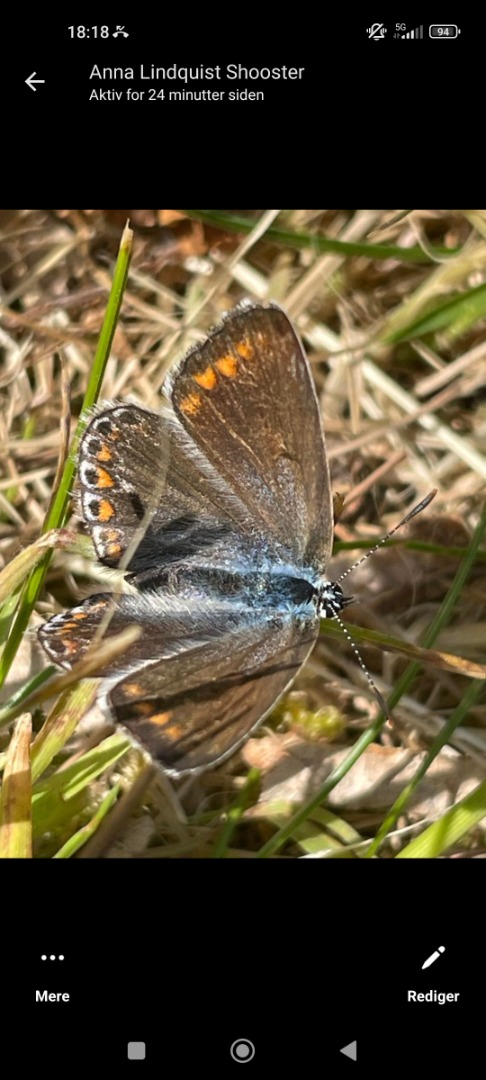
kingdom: Animalia
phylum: Arthropoda
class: Insecta
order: Lepidoptera
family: Lycaenidae
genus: Polyommatus
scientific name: Polyommatus icarus
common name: Almindelig blåfugl
